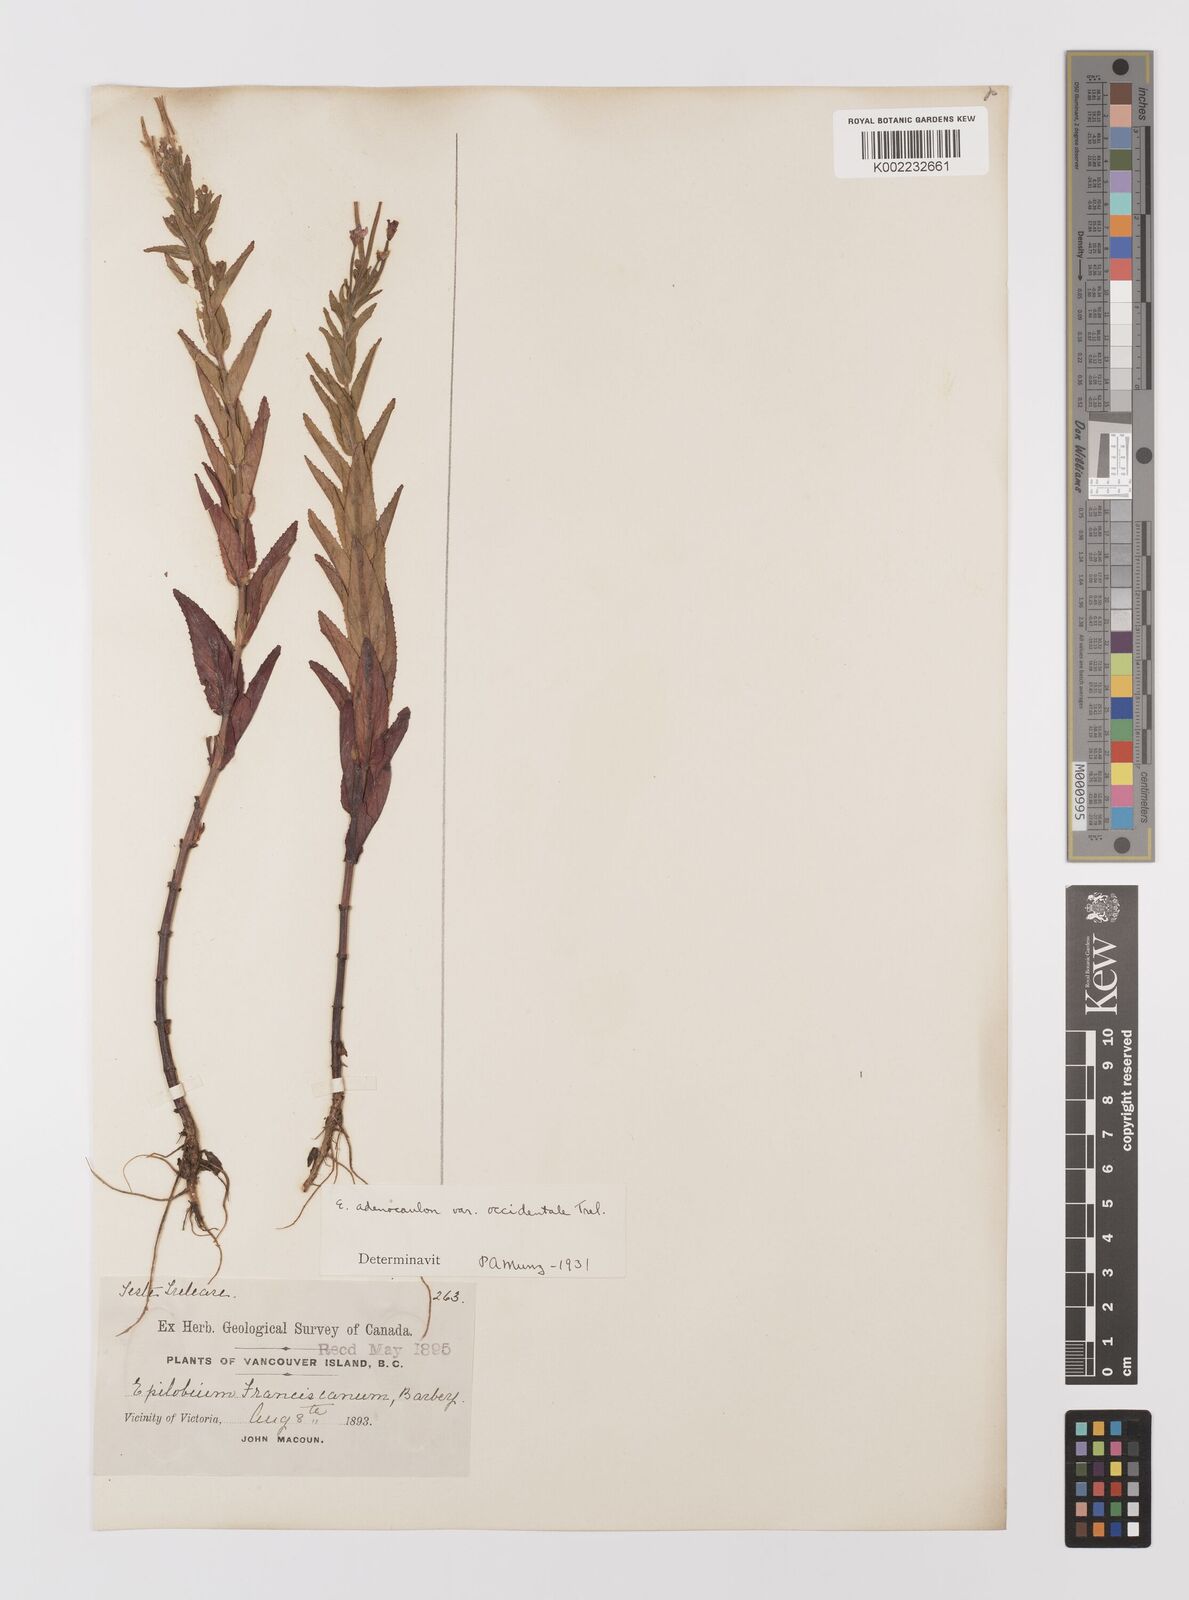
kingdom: Plantae
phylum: Tracheophyta
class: Magnoliopsida
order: Myrtales
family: Onagraceae
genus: Epilobium
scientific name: Epilobium ciliatum
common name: American willowherb
